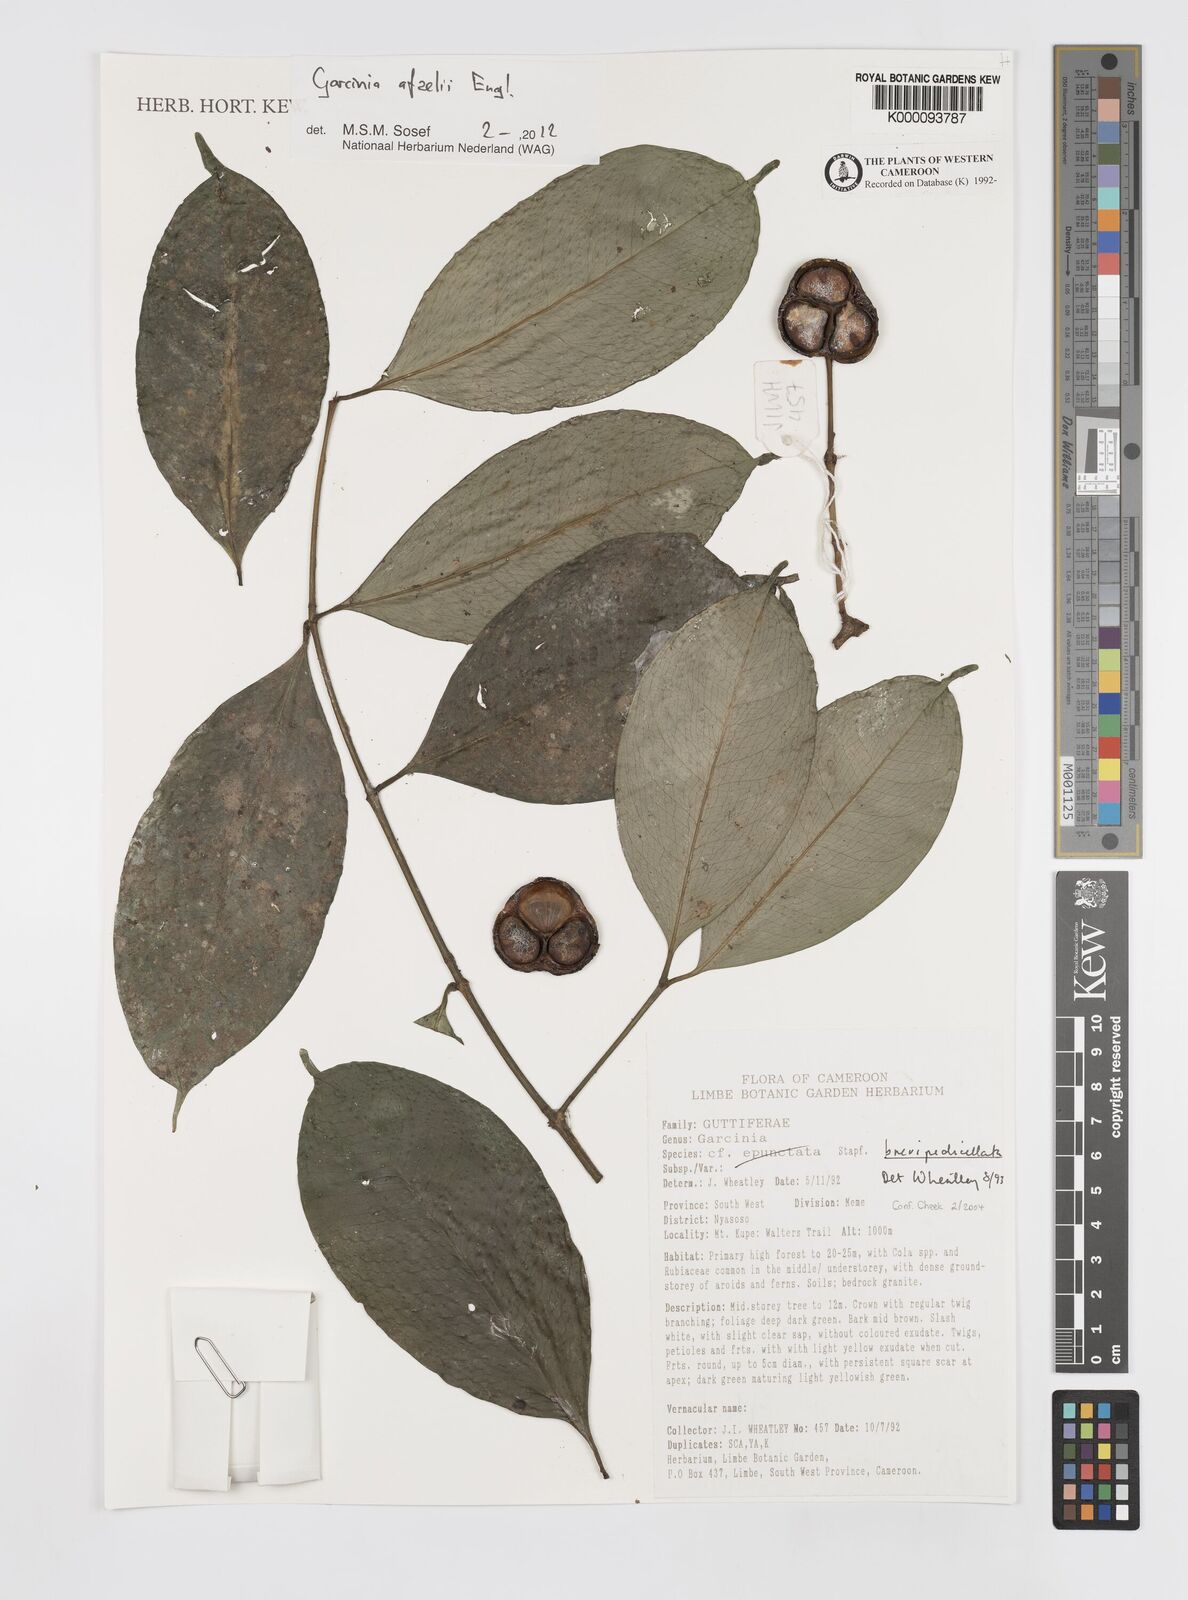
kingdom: Plantae
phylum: Tracheophyta
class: Magnoliopsida
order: Malpighiales
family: Clusiaceae
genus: Garcinia
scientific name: Garcinia brevipedicellata
